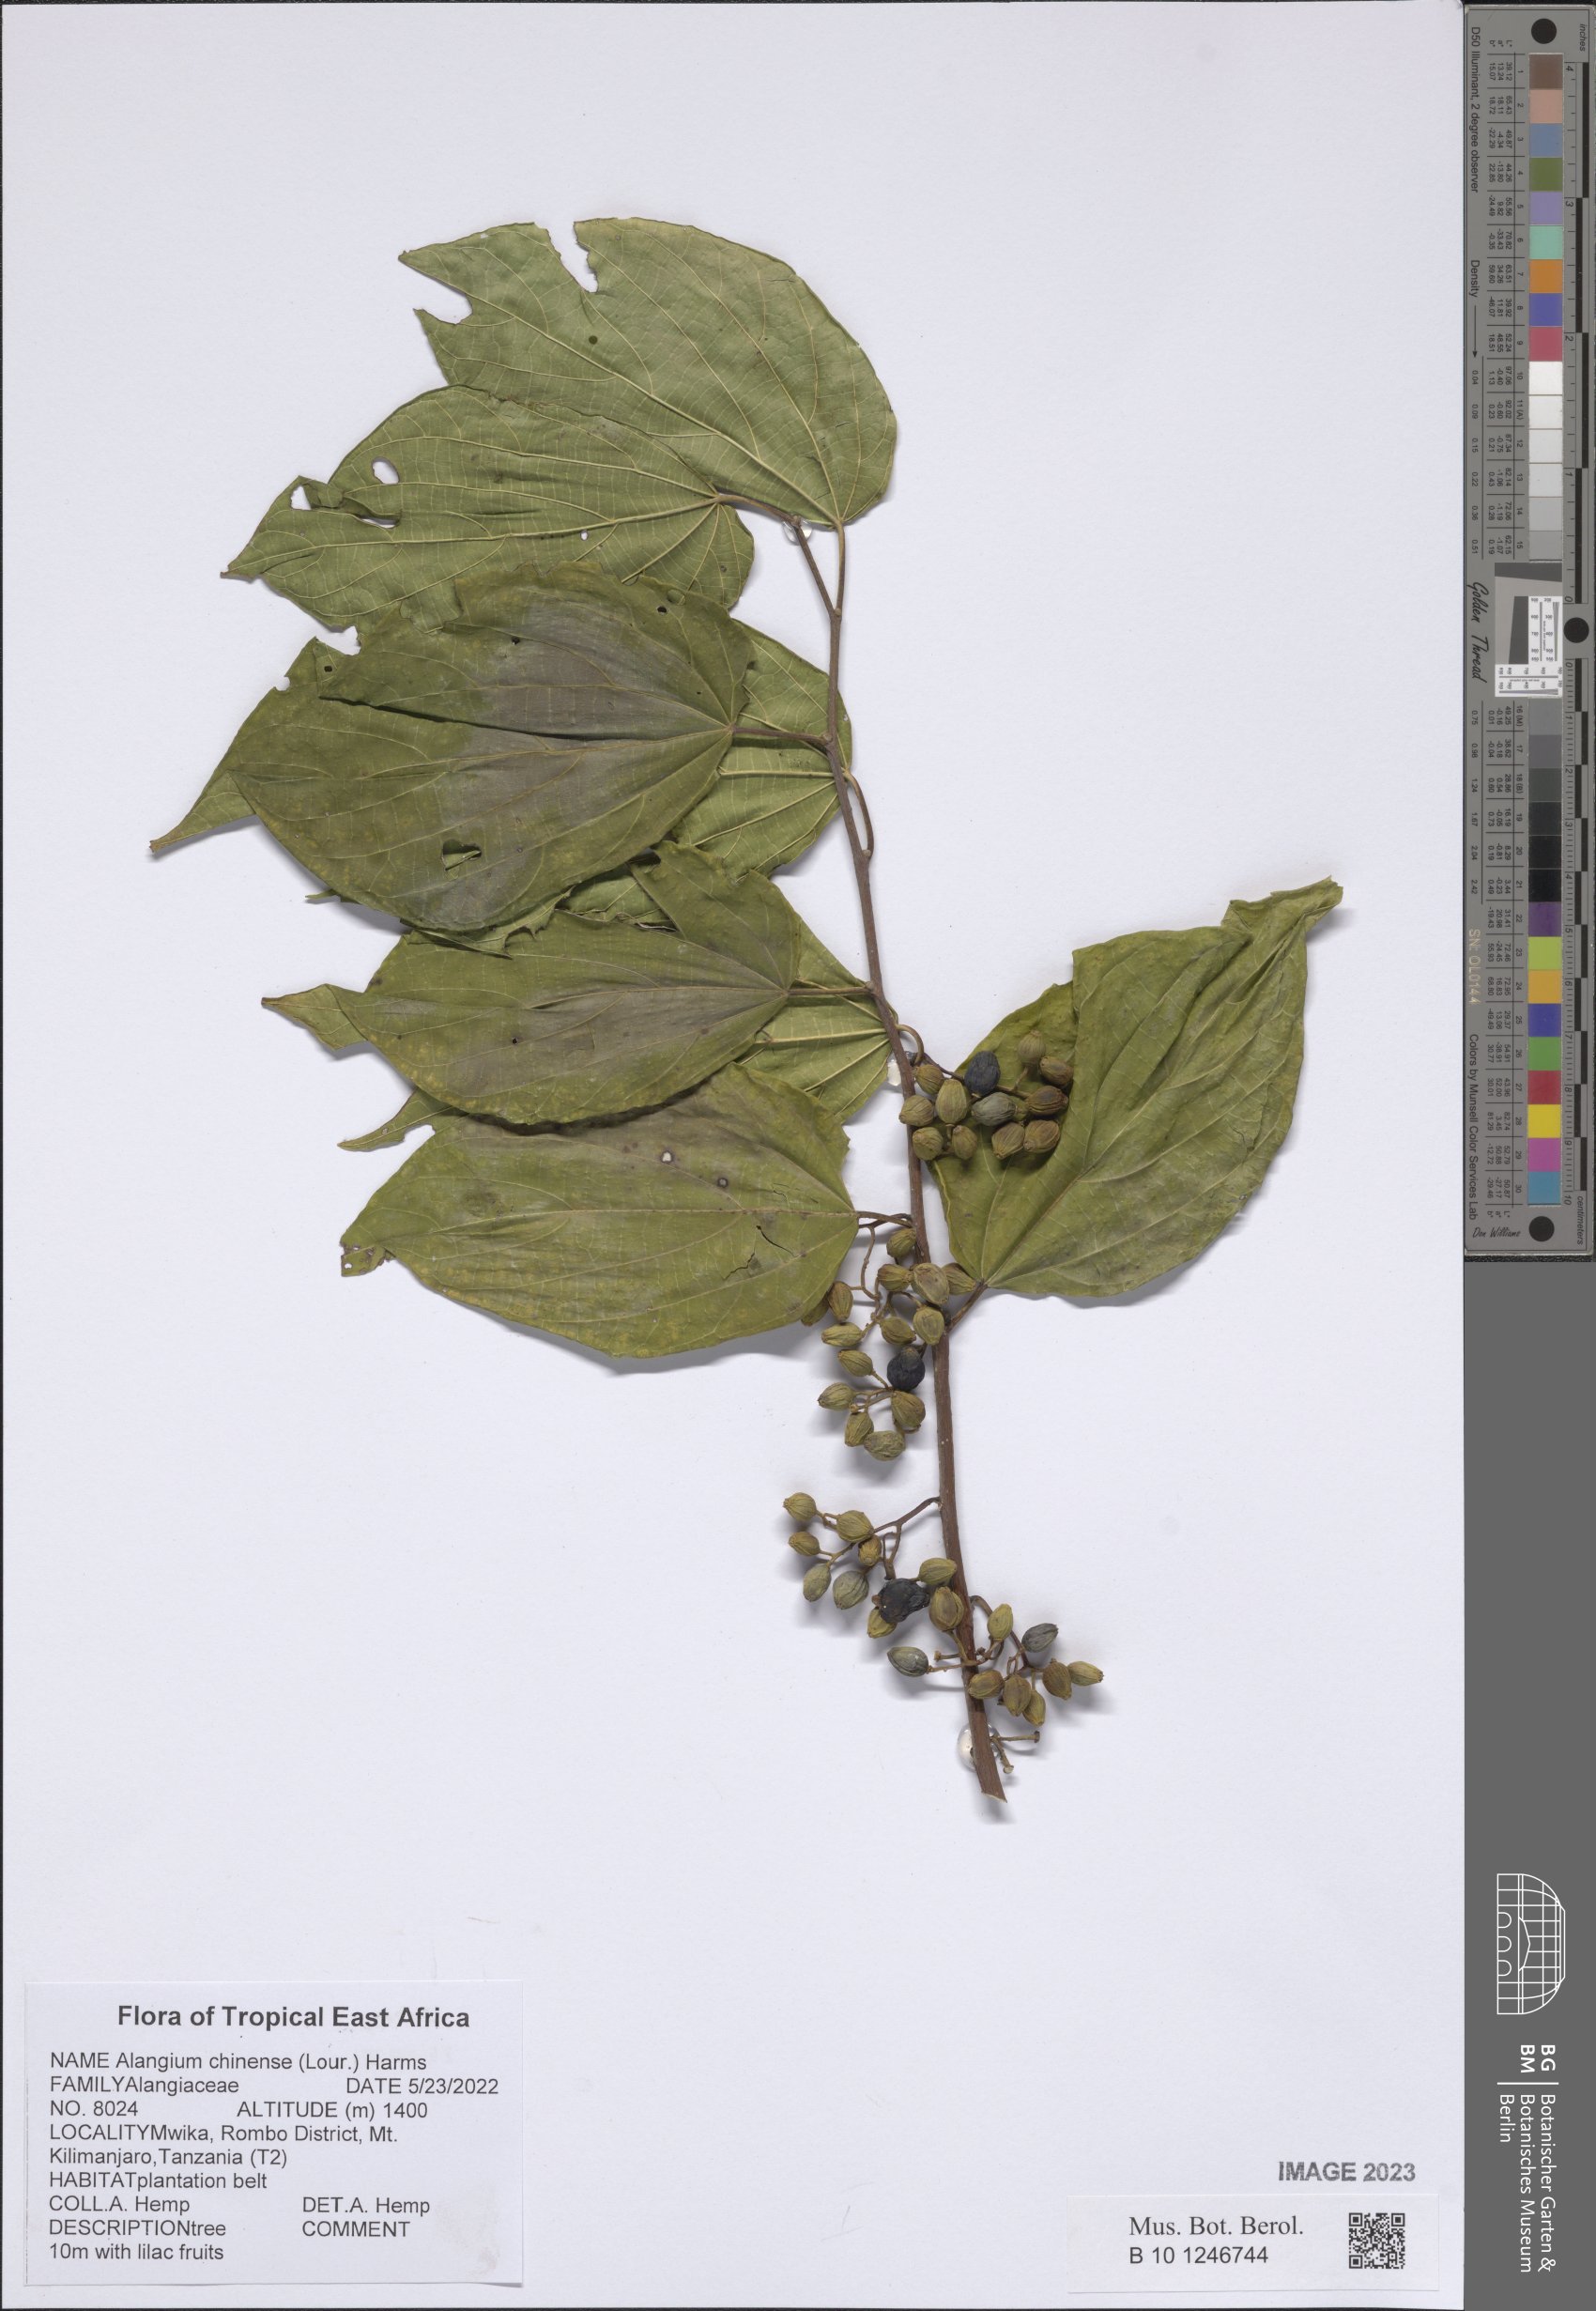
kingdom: Plantae
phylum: Tracheophyta
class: Magnoliopsida
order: Cornales
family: Cornaceae
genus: Alangium
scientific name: Alangium chinense
